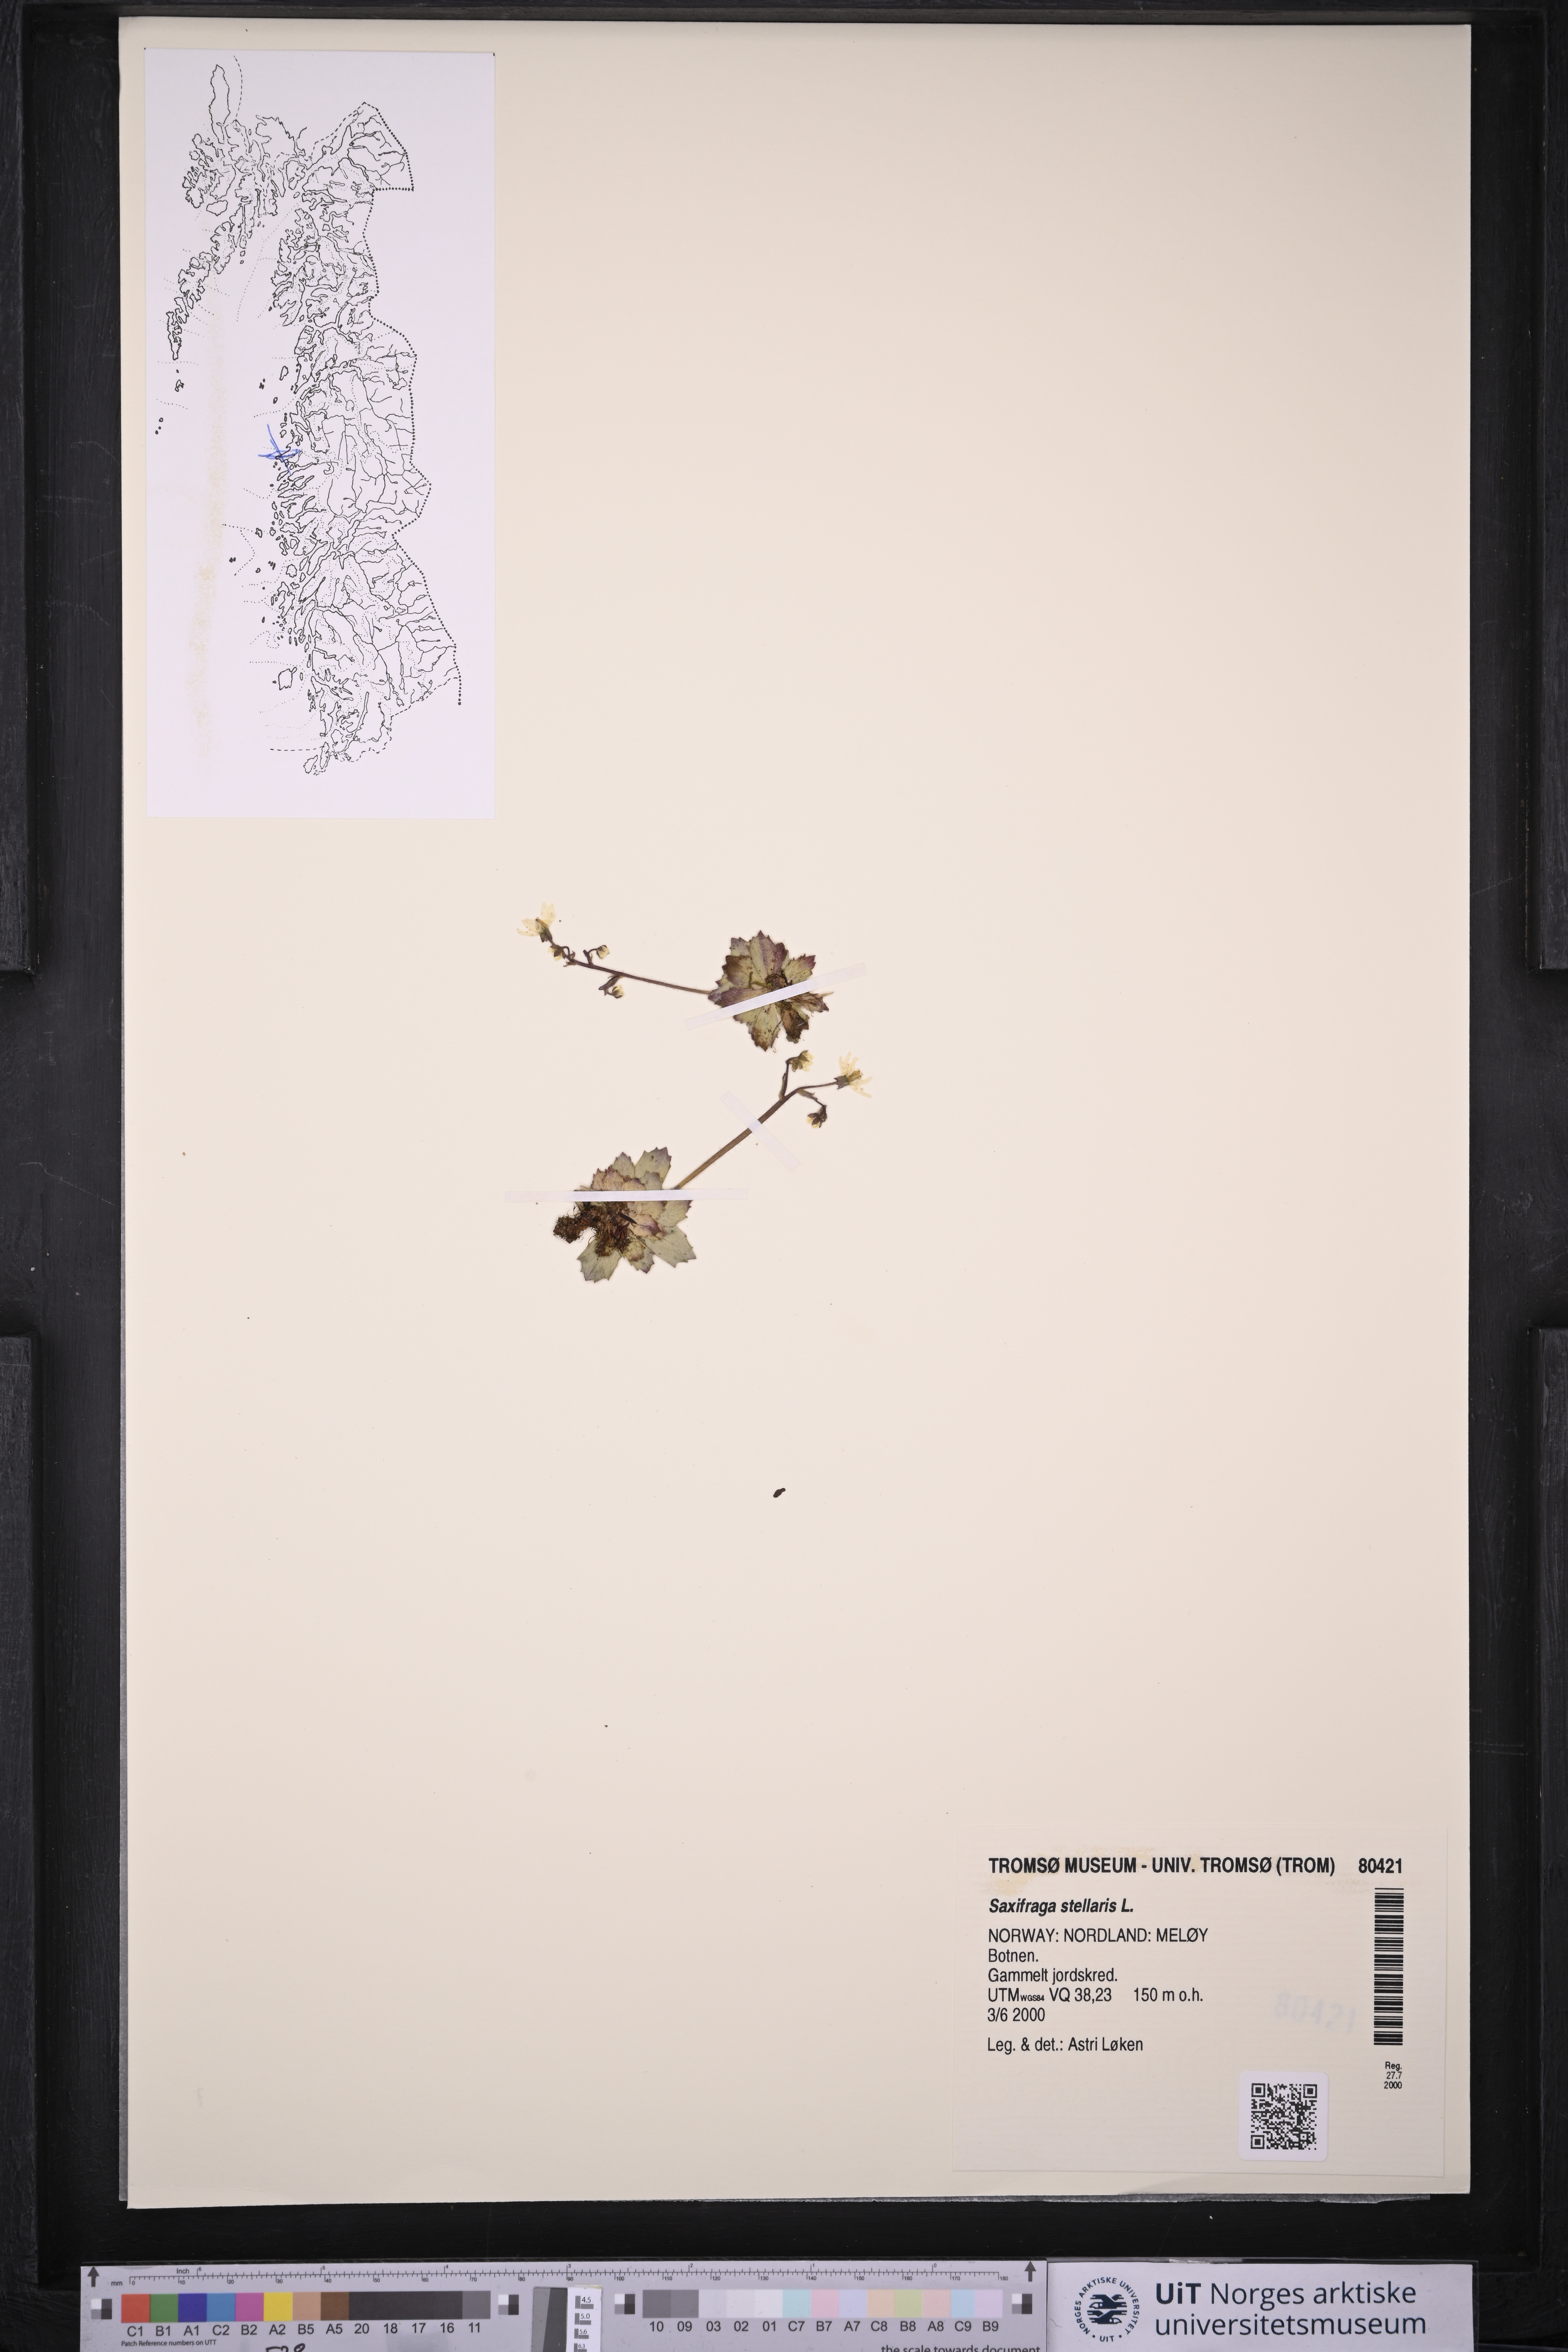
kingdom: Plantae
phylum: Tracheophyta
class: Magnoliopsida
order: Saxifragales
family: Saxifragaceae
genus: Micranthes
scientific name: Micranthes stellaris
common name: Starry saxifrage
